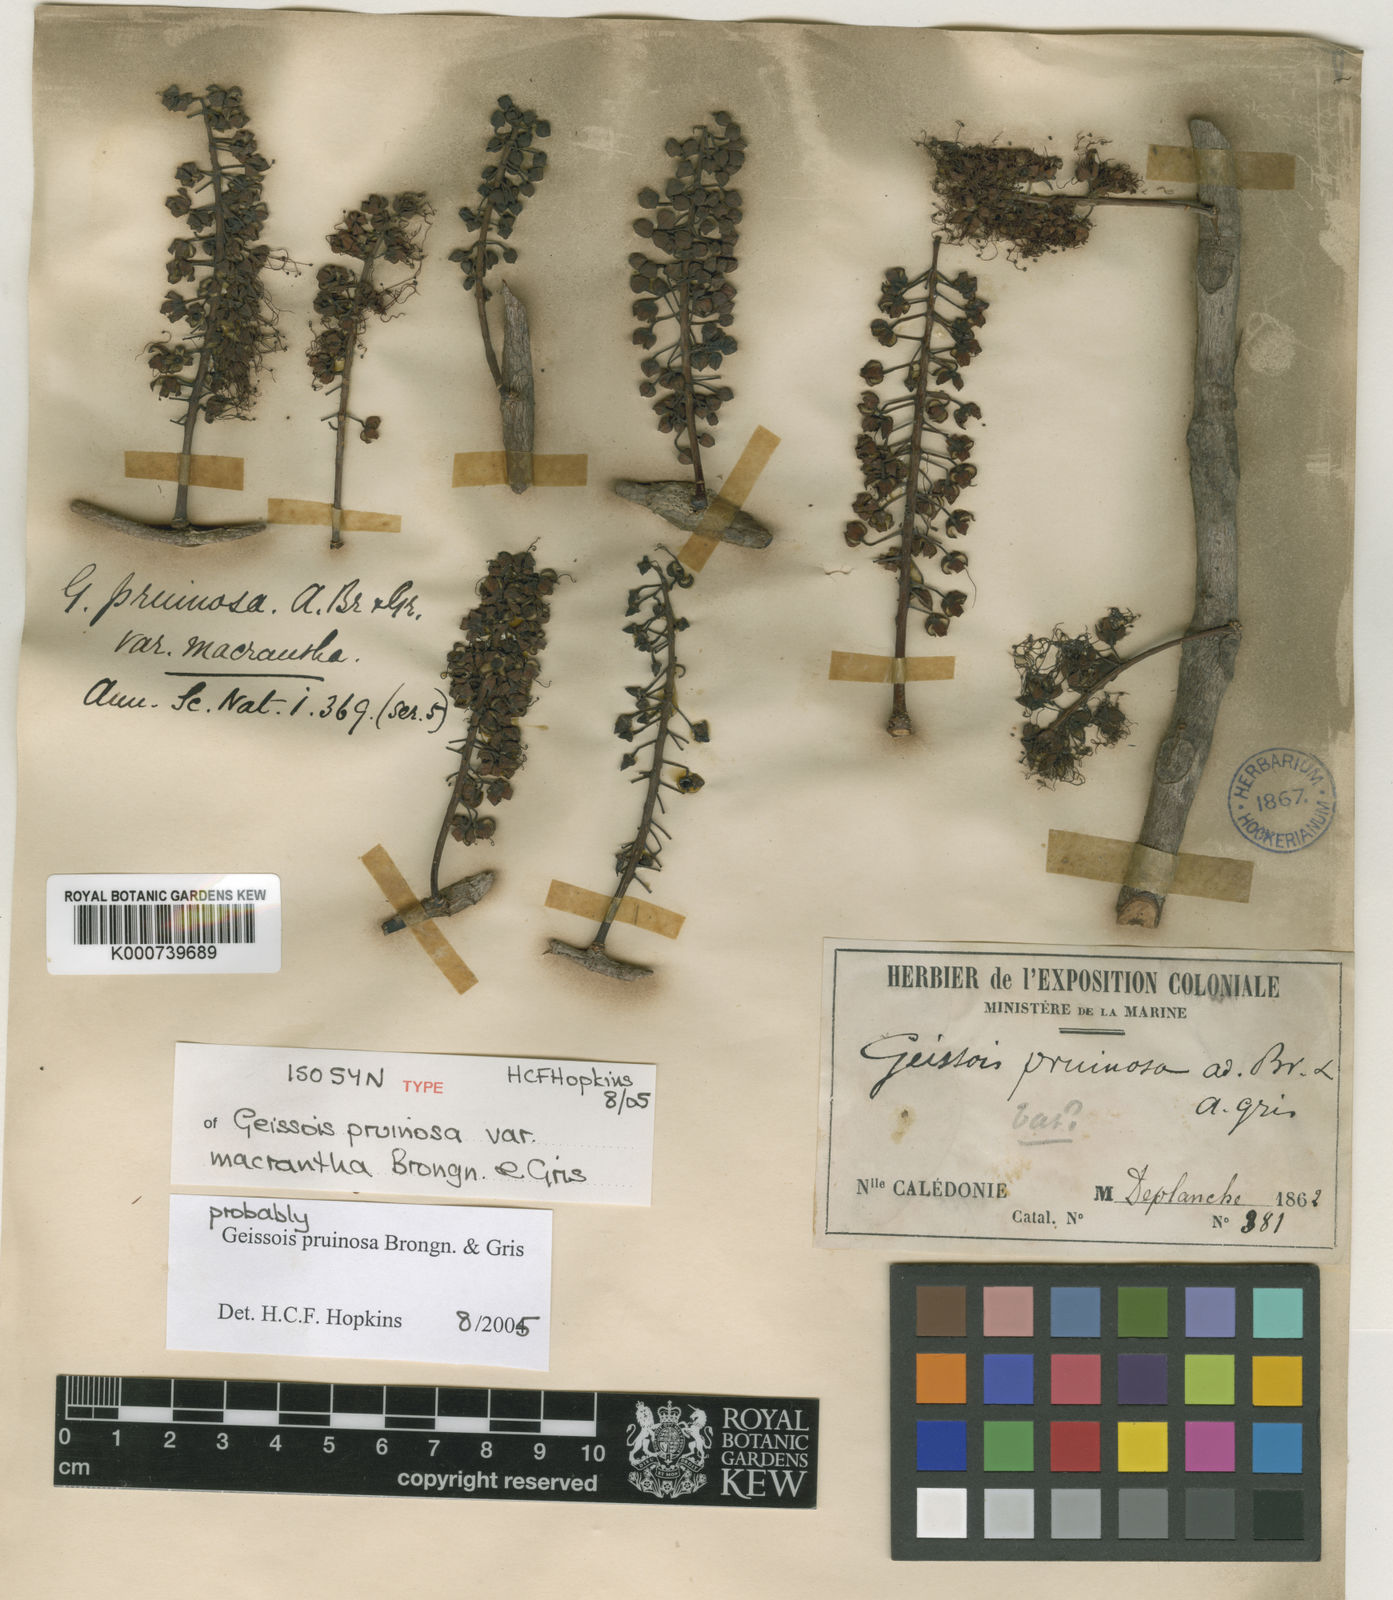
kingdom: Plantae
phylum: Tracheophyta
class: Magnoliopsida
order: Oxalidales
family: Cunoniaceae
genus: Geissois
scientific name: Geissois pruinosa
